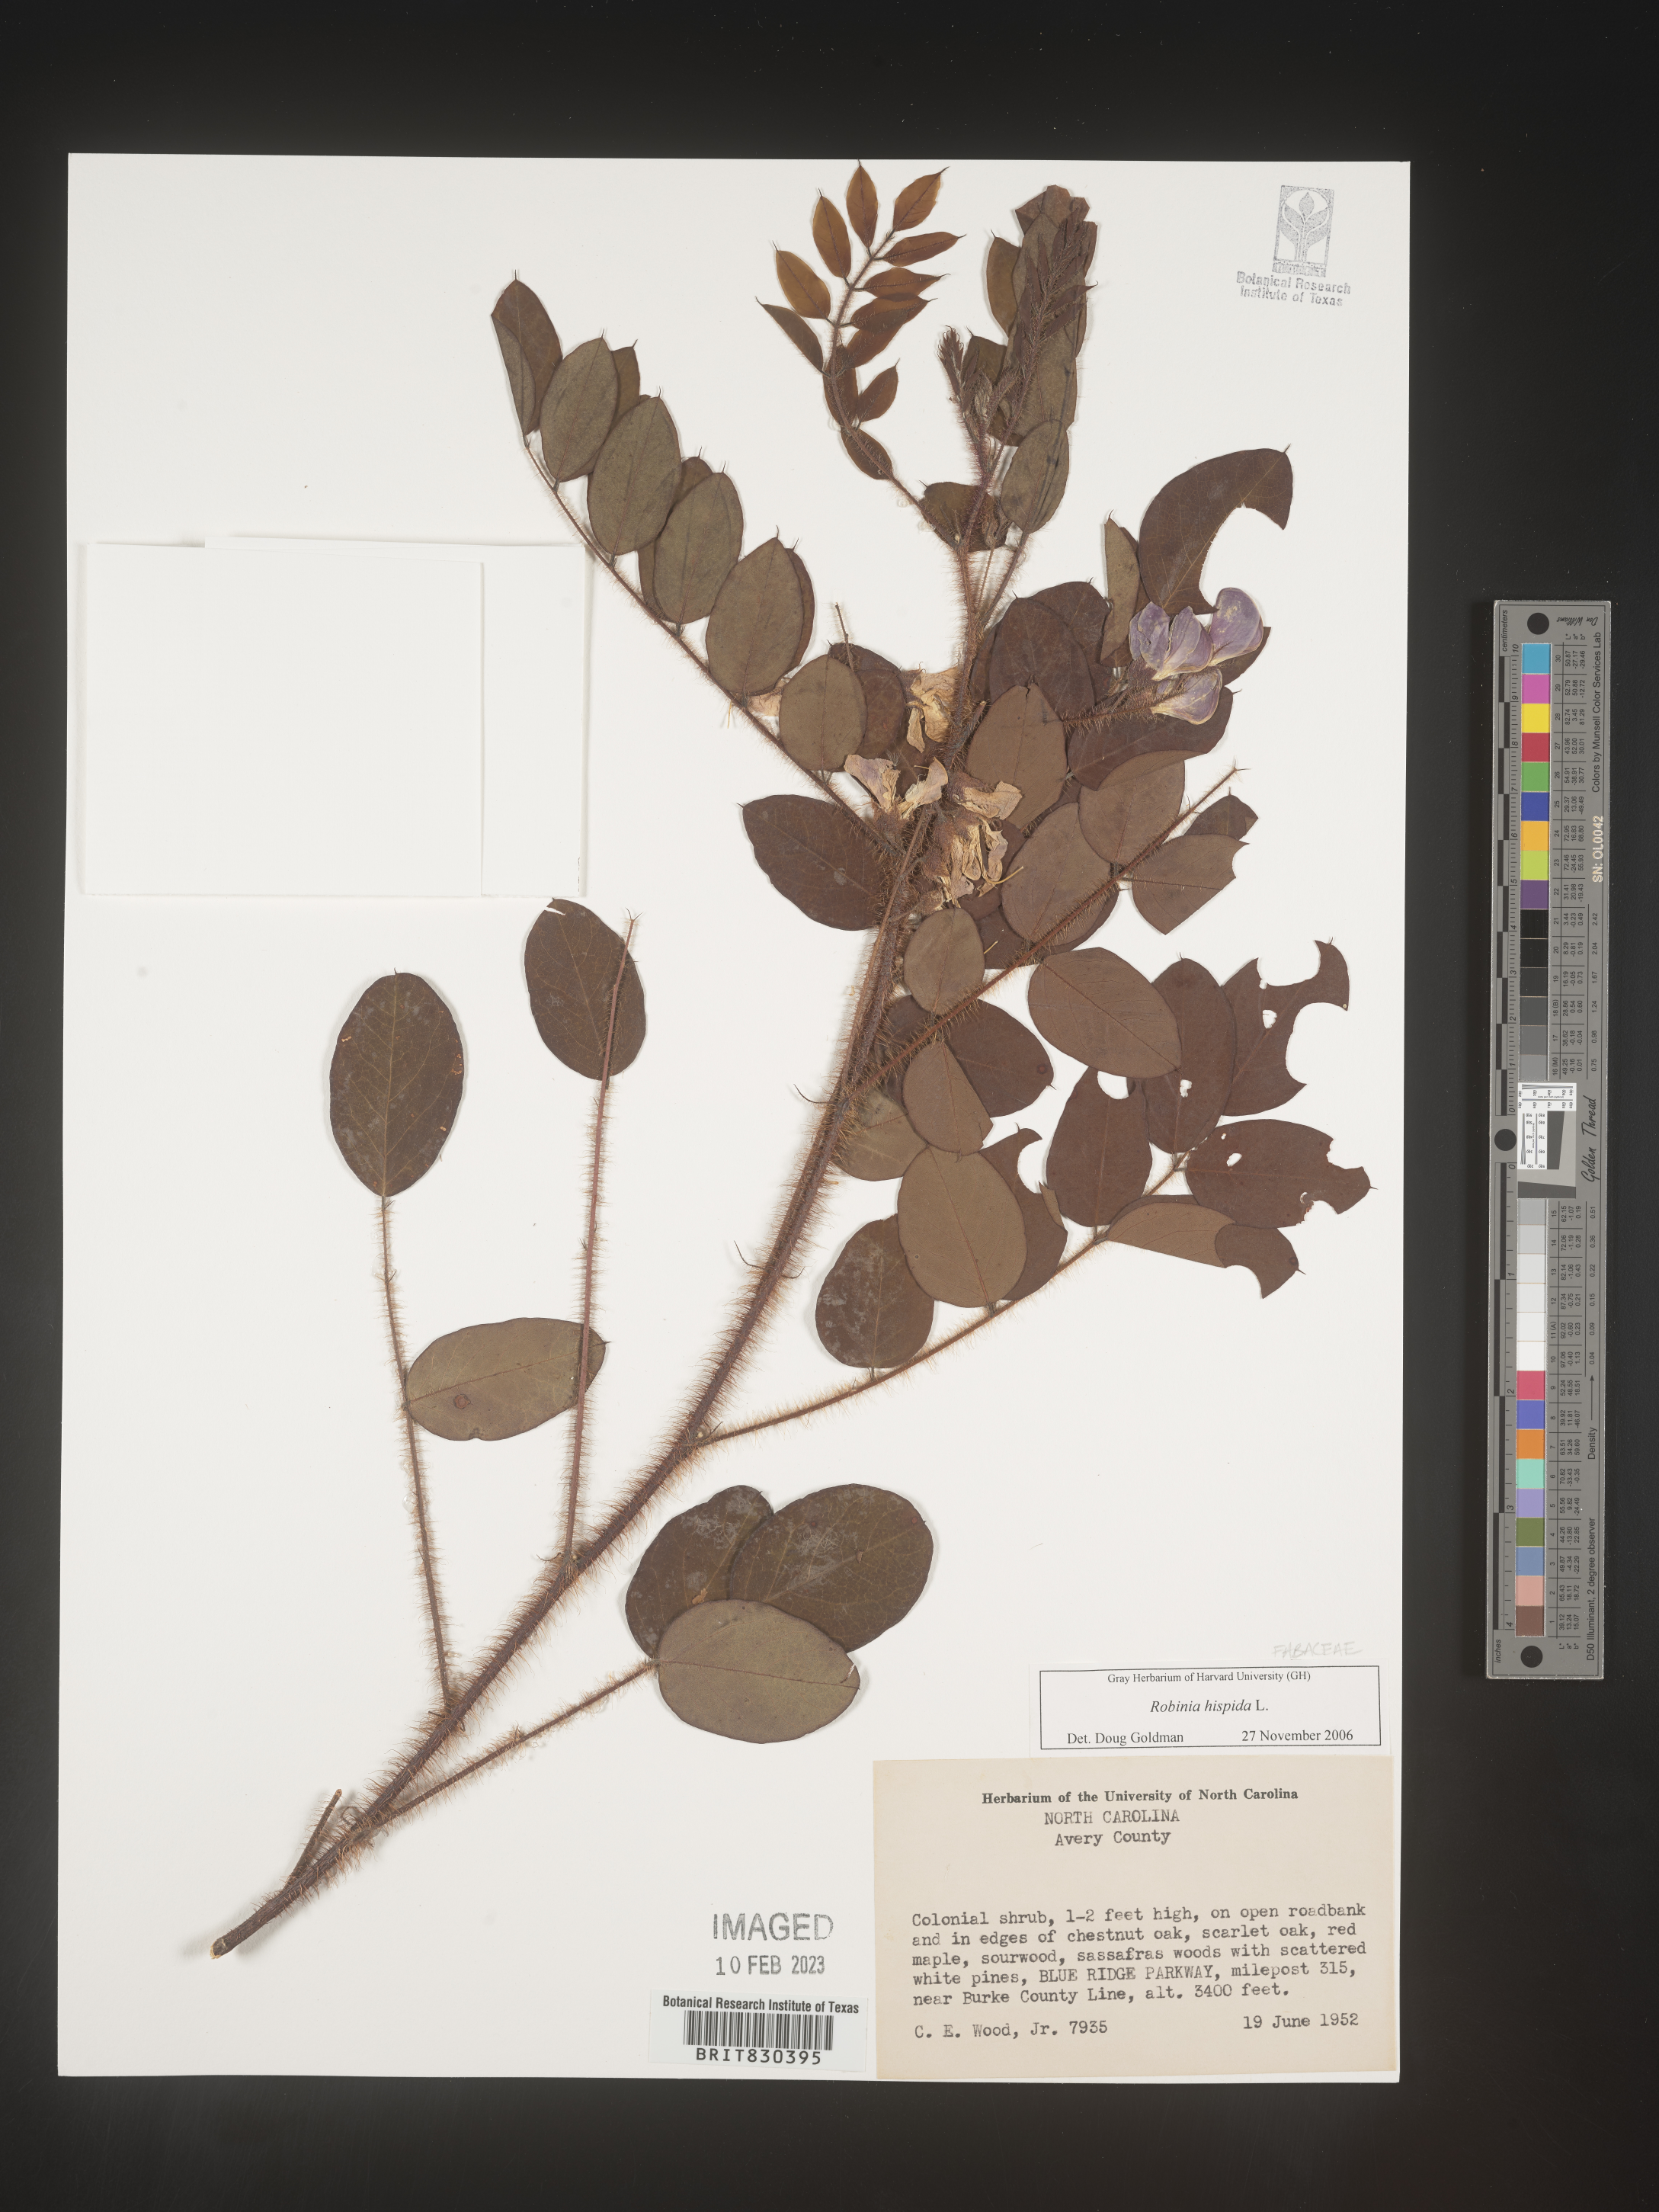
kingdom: Plantae
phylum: Tracheophyta
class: Magnoliopsida
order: Fabales
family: Fabaceae
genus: Robinia
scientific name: Robinia hispida
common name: Bristly locust
